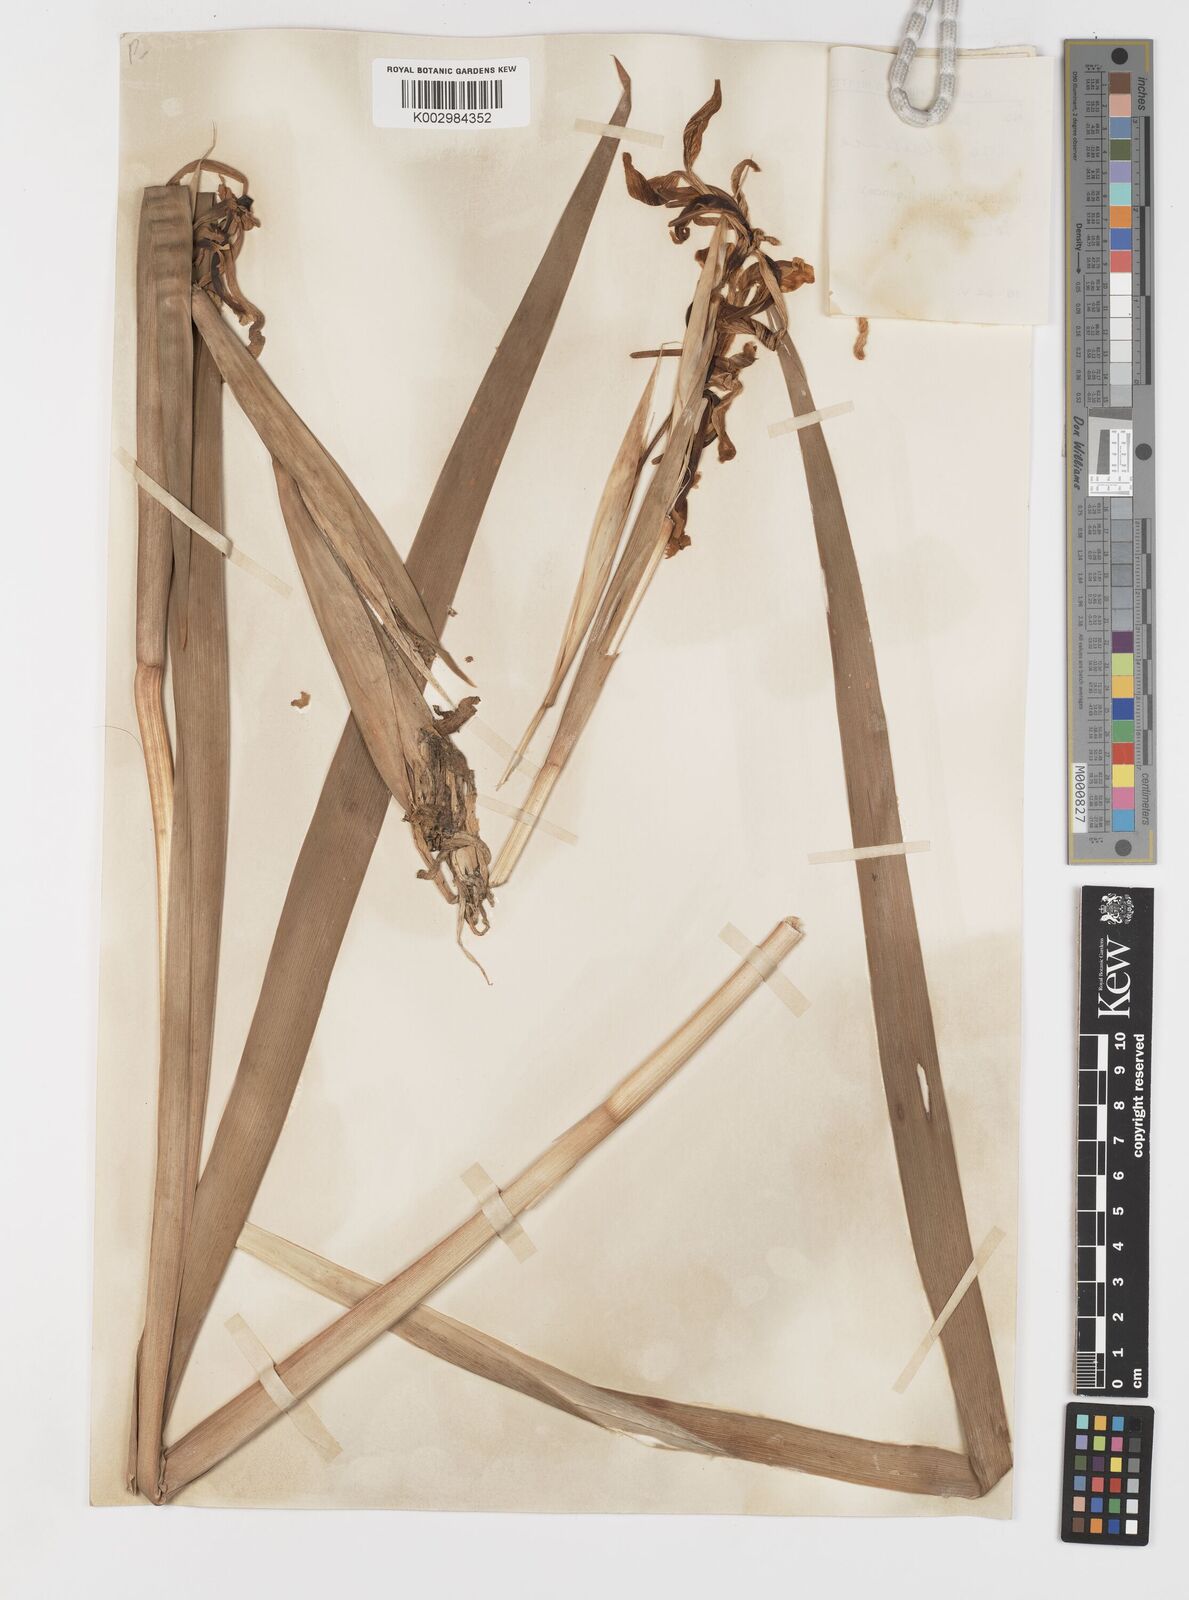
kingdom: Plantae
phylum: Tracheophyta
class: Liliopsida
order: Asparagales
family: Iridaceae
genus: Iris
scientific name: Iris orientalis
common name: Turkish iris
